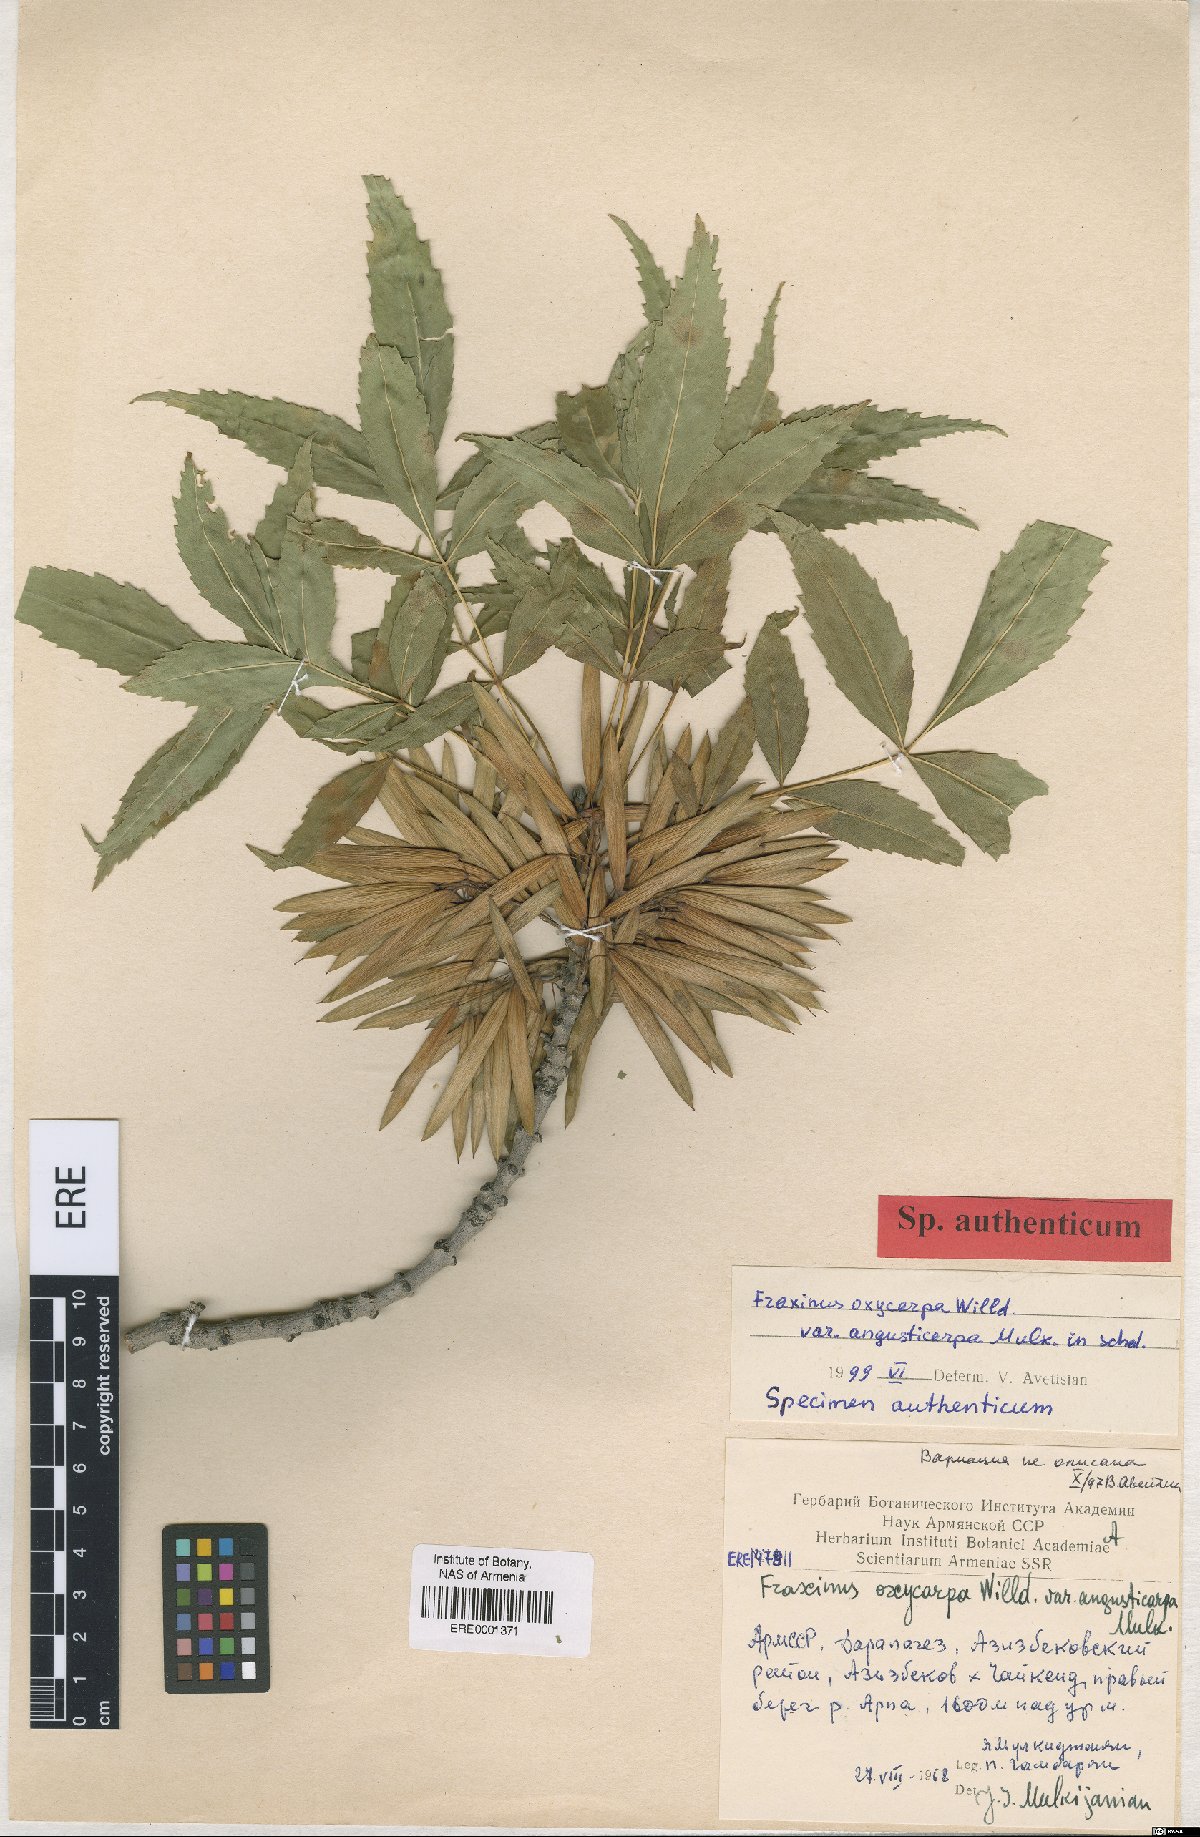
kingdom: Plantae
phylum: Tracheophyta
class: Magnoliopsida
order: Lamiales
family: Oleaceae
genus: Fraxinus
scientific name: Fraxinus angustifolia
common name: Narrow-leafed ash
